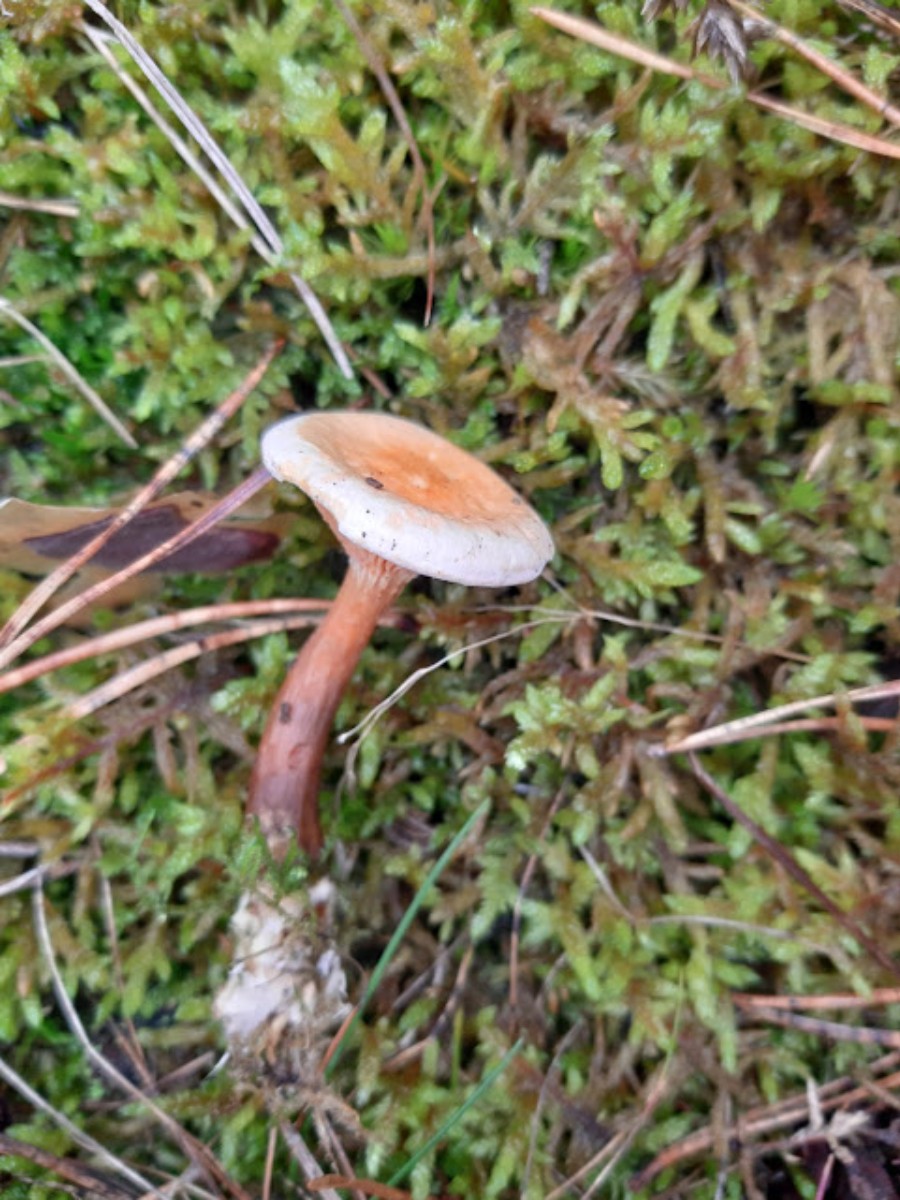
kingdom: Fungi
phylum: Basidiomycota
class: Agaricomycetes
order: Boletales
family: Hygrophoropsidaceae
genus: Hygrophoropsis
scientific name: Hygrophoropsis aurantiaca
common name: almindelig orangekantarel
